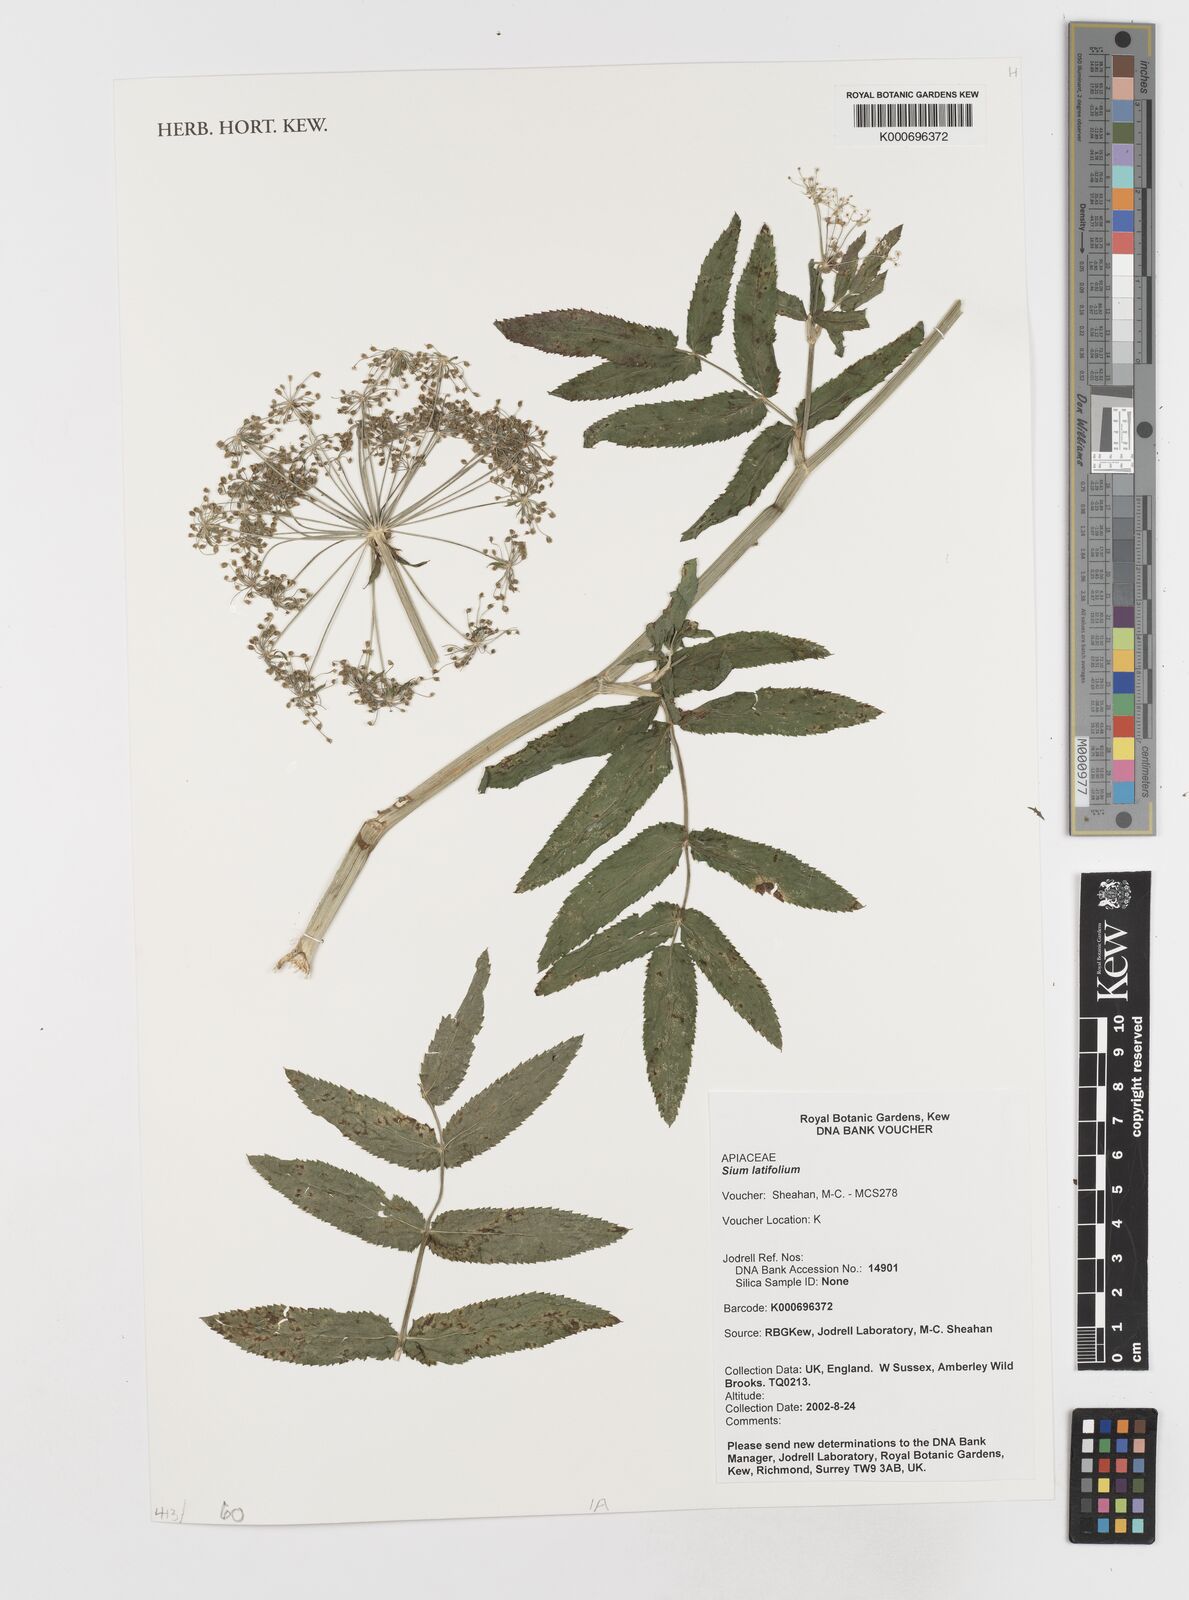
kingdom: Plantae
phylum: Tracheophyta
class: Magnoliopsida
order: Apiales
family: Apiaceae
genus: Sium
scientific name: Sium latifolium
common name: Greater water-parsnip
